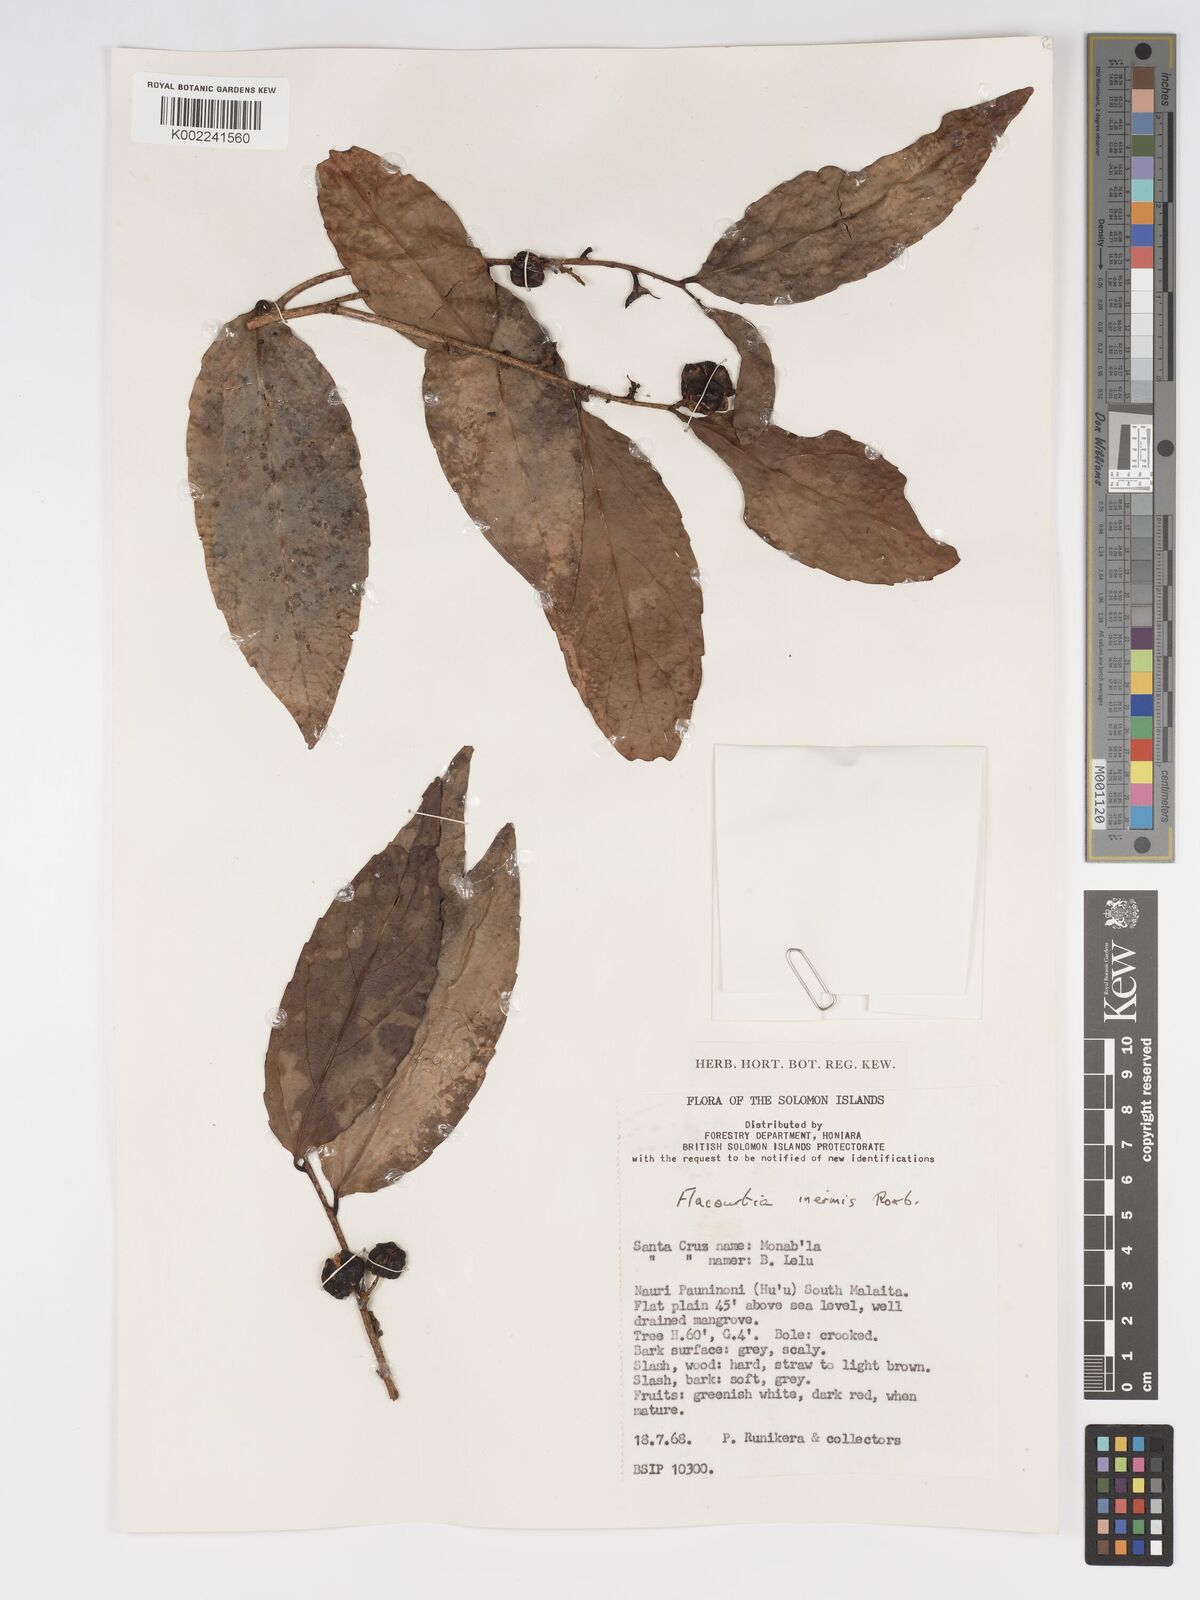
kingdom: Plantae
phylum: Tracheophyta
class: Magnoliopsida
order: Malpighiales
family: Salicaceae
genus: Flacourtia
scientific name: Flacourtia inermis
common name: Plum-of-martinique
